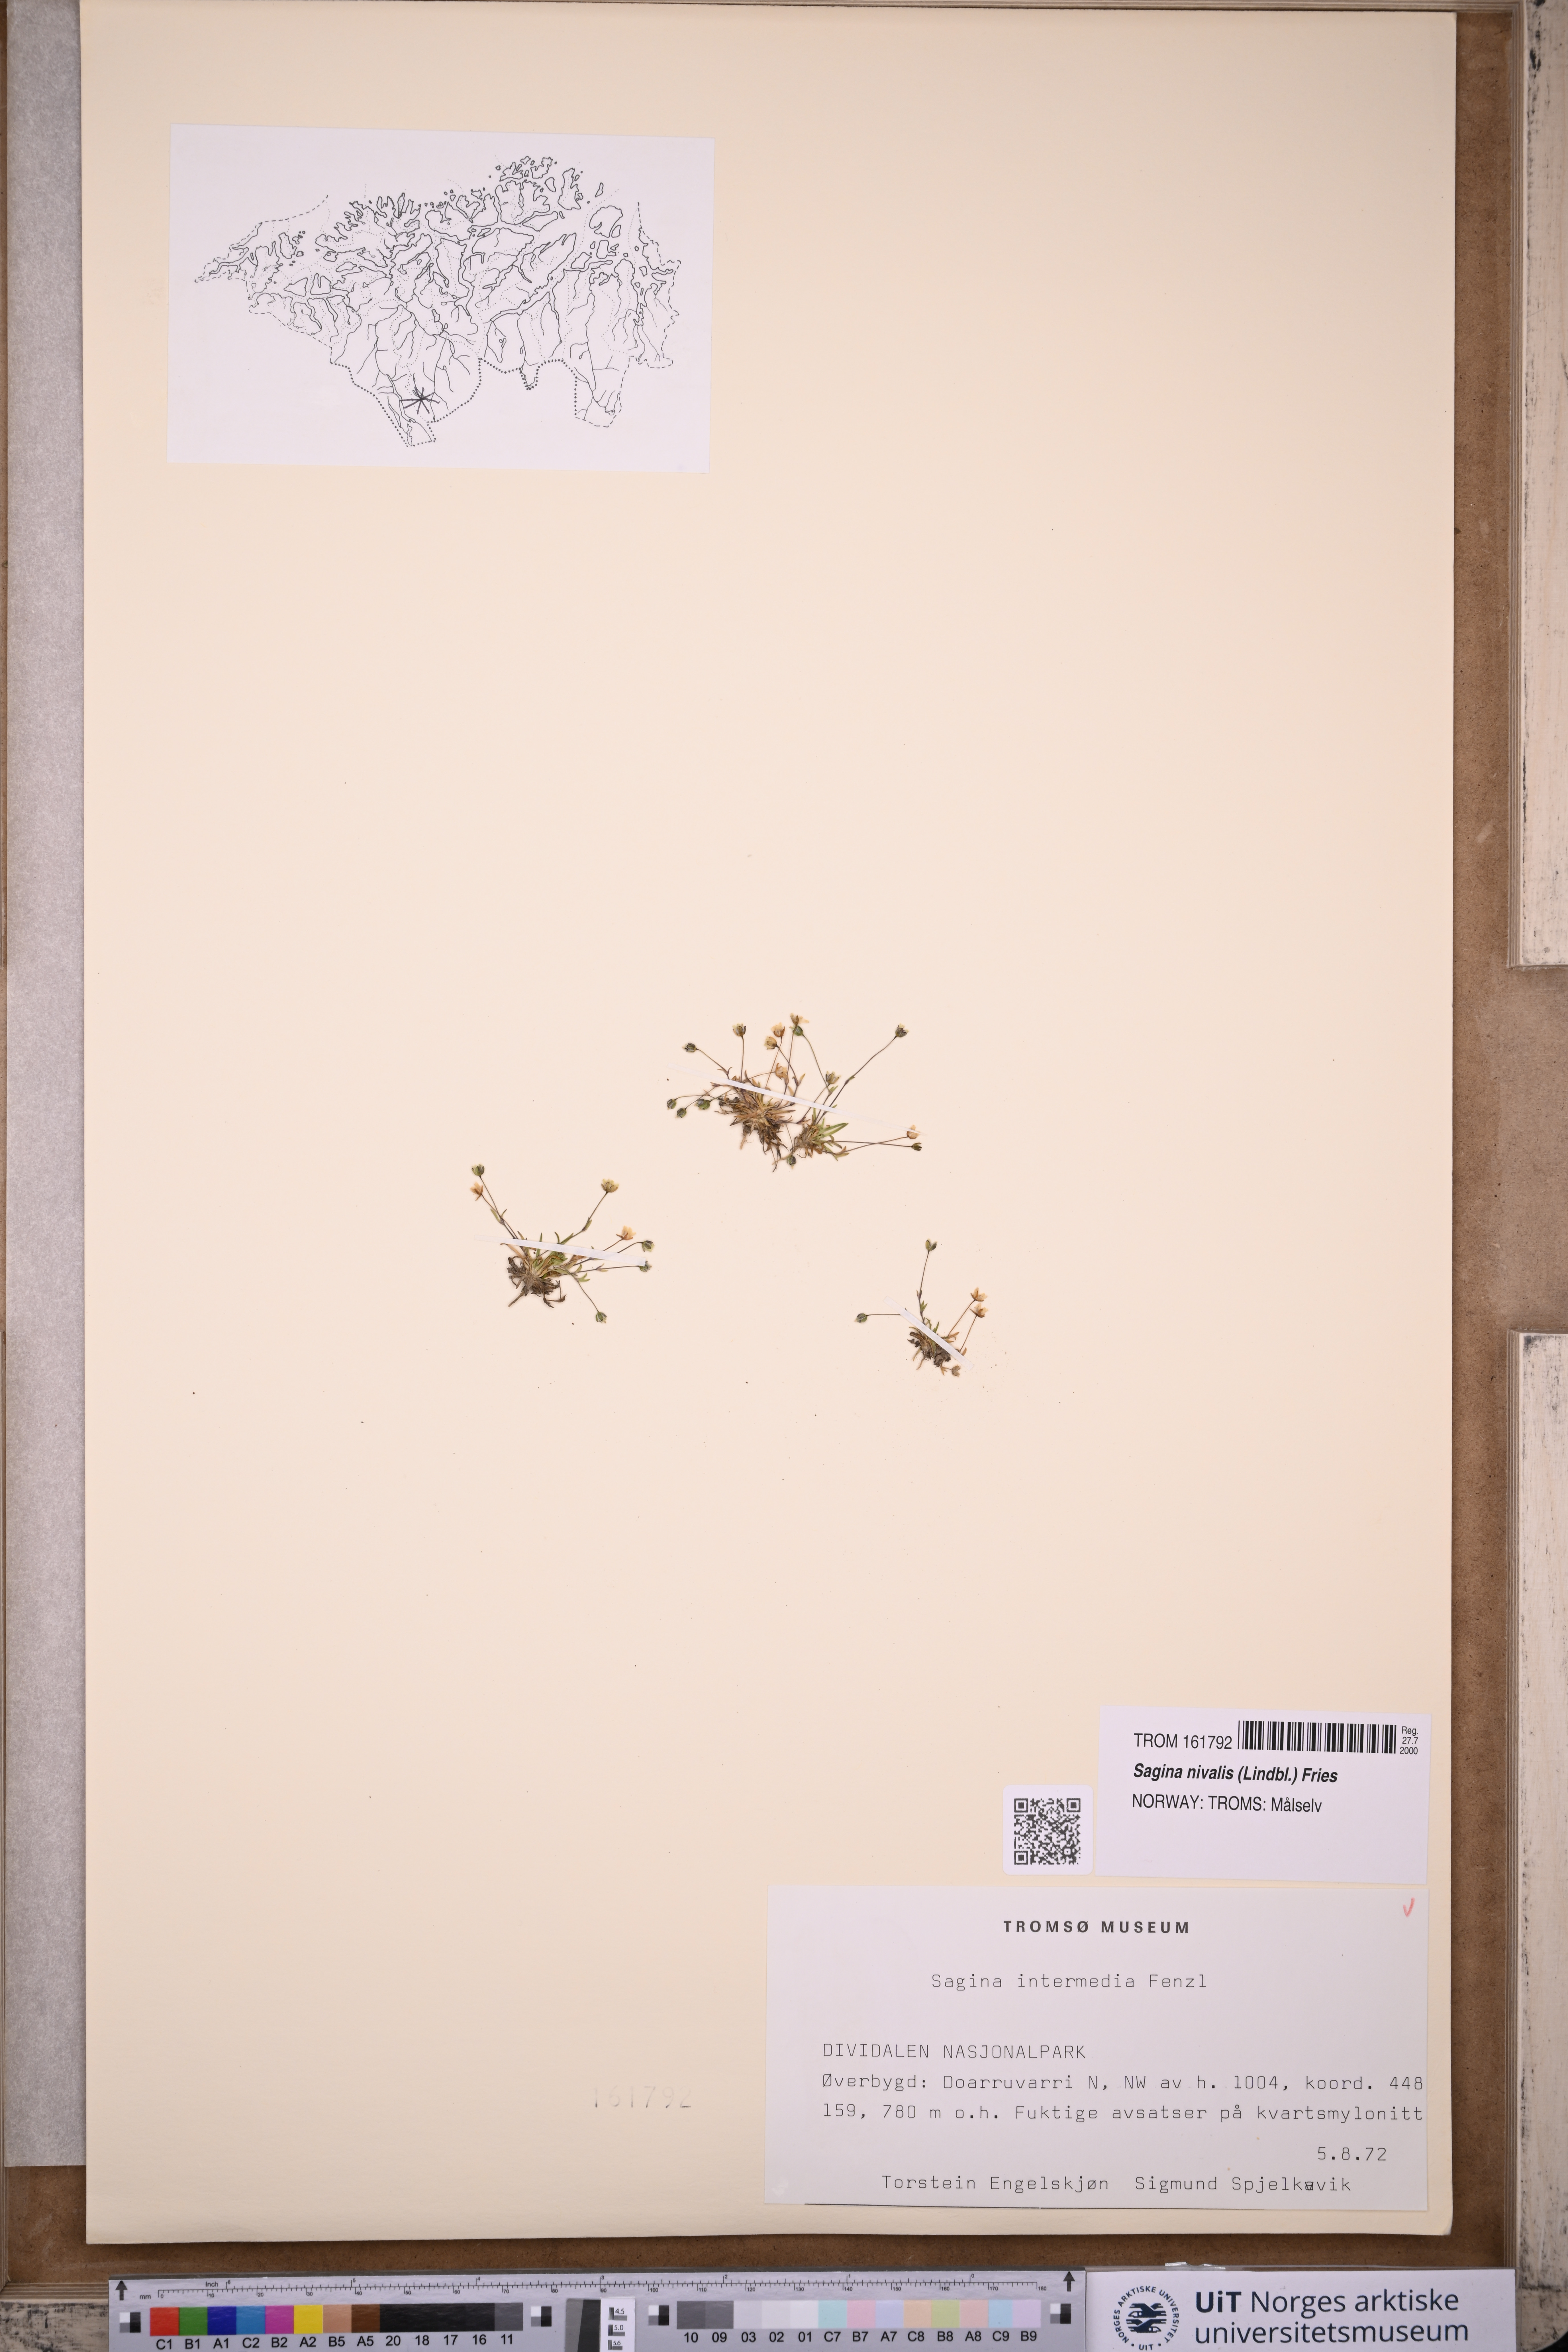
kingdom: Plantae
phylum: Tracheophyta
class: Magnoliopsida
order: Caryophyllales
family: Caryophyllaceae
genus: Sagina
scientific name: Sagina nivalis
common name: Snow pearlwort
